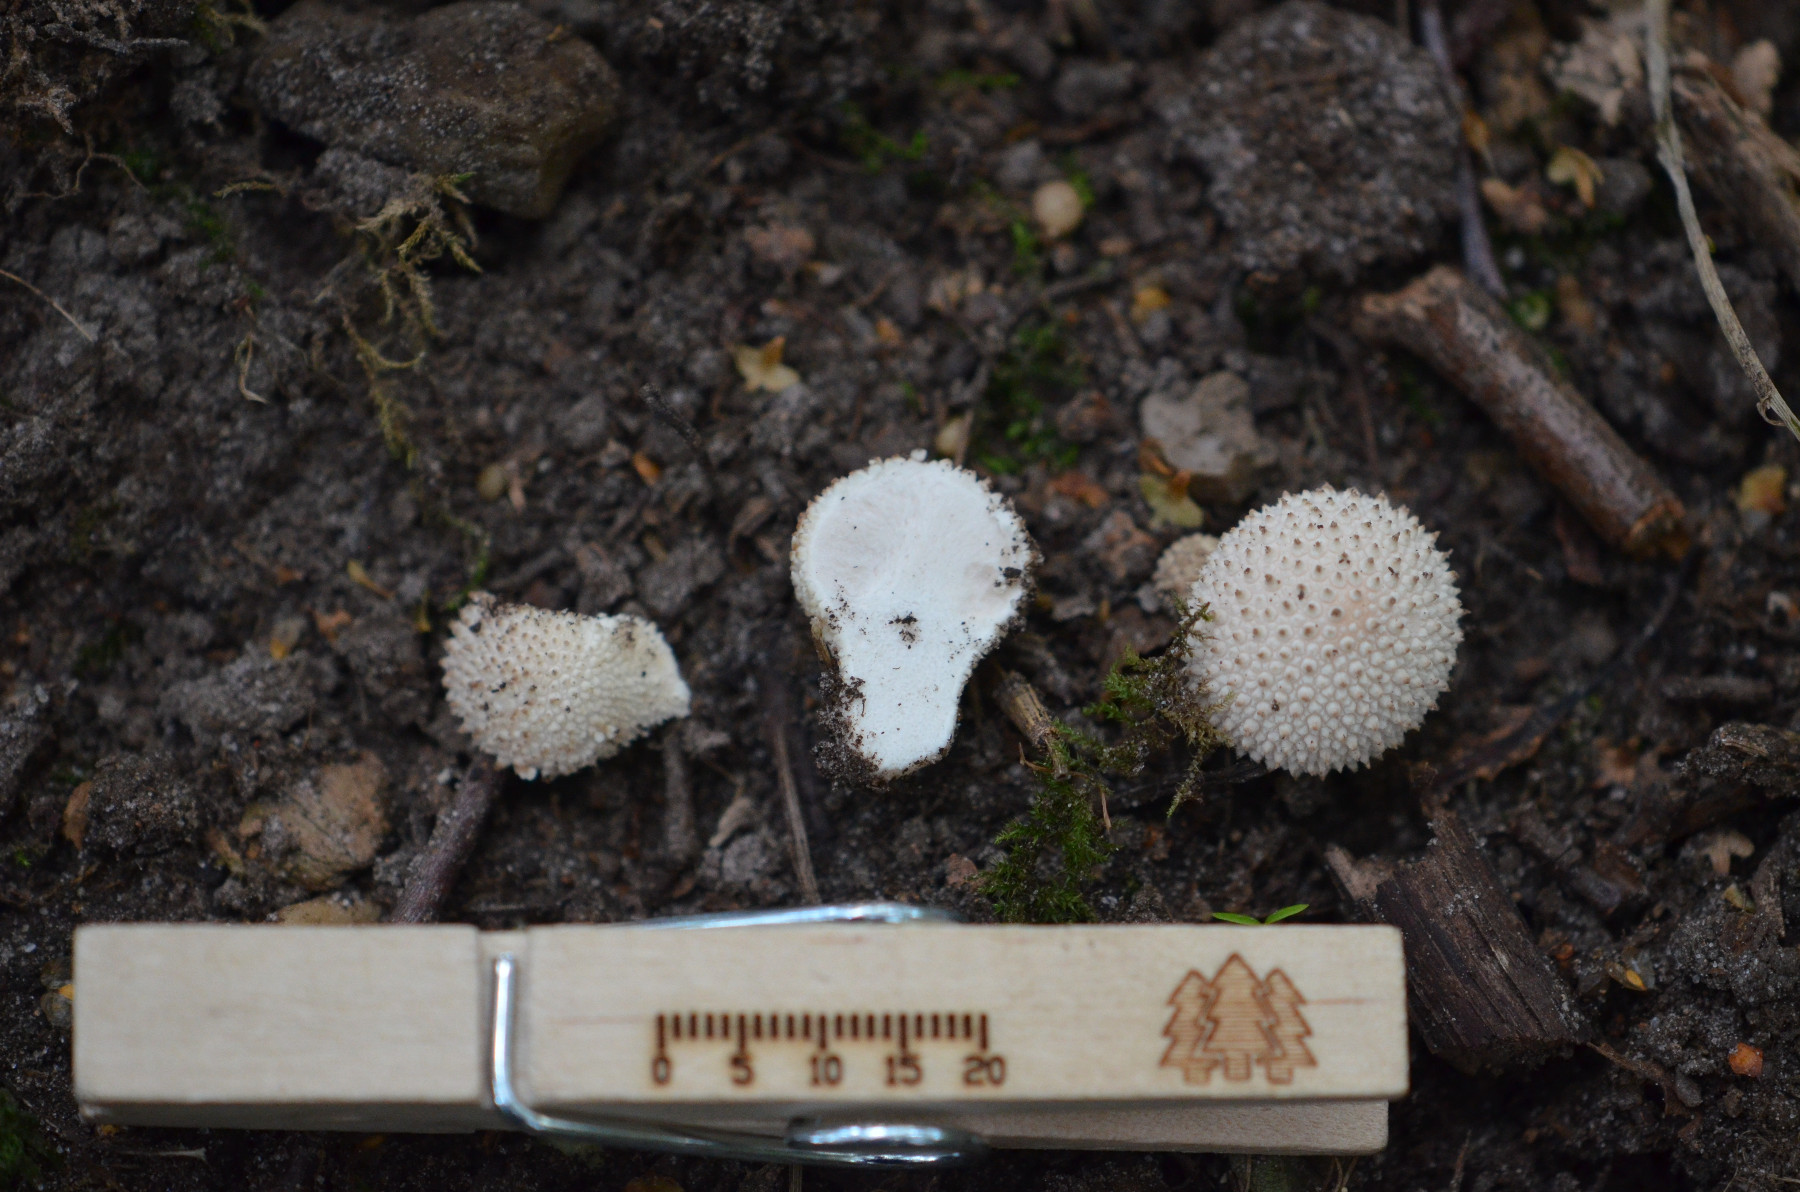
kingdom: Fungi
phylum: Basidiomycota
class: Agaricomycetes
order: Agaricales
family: Lycoperdaceae
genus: Lycoperdon
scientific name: Lycoperdon perlatum
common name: krystal-støvbold
